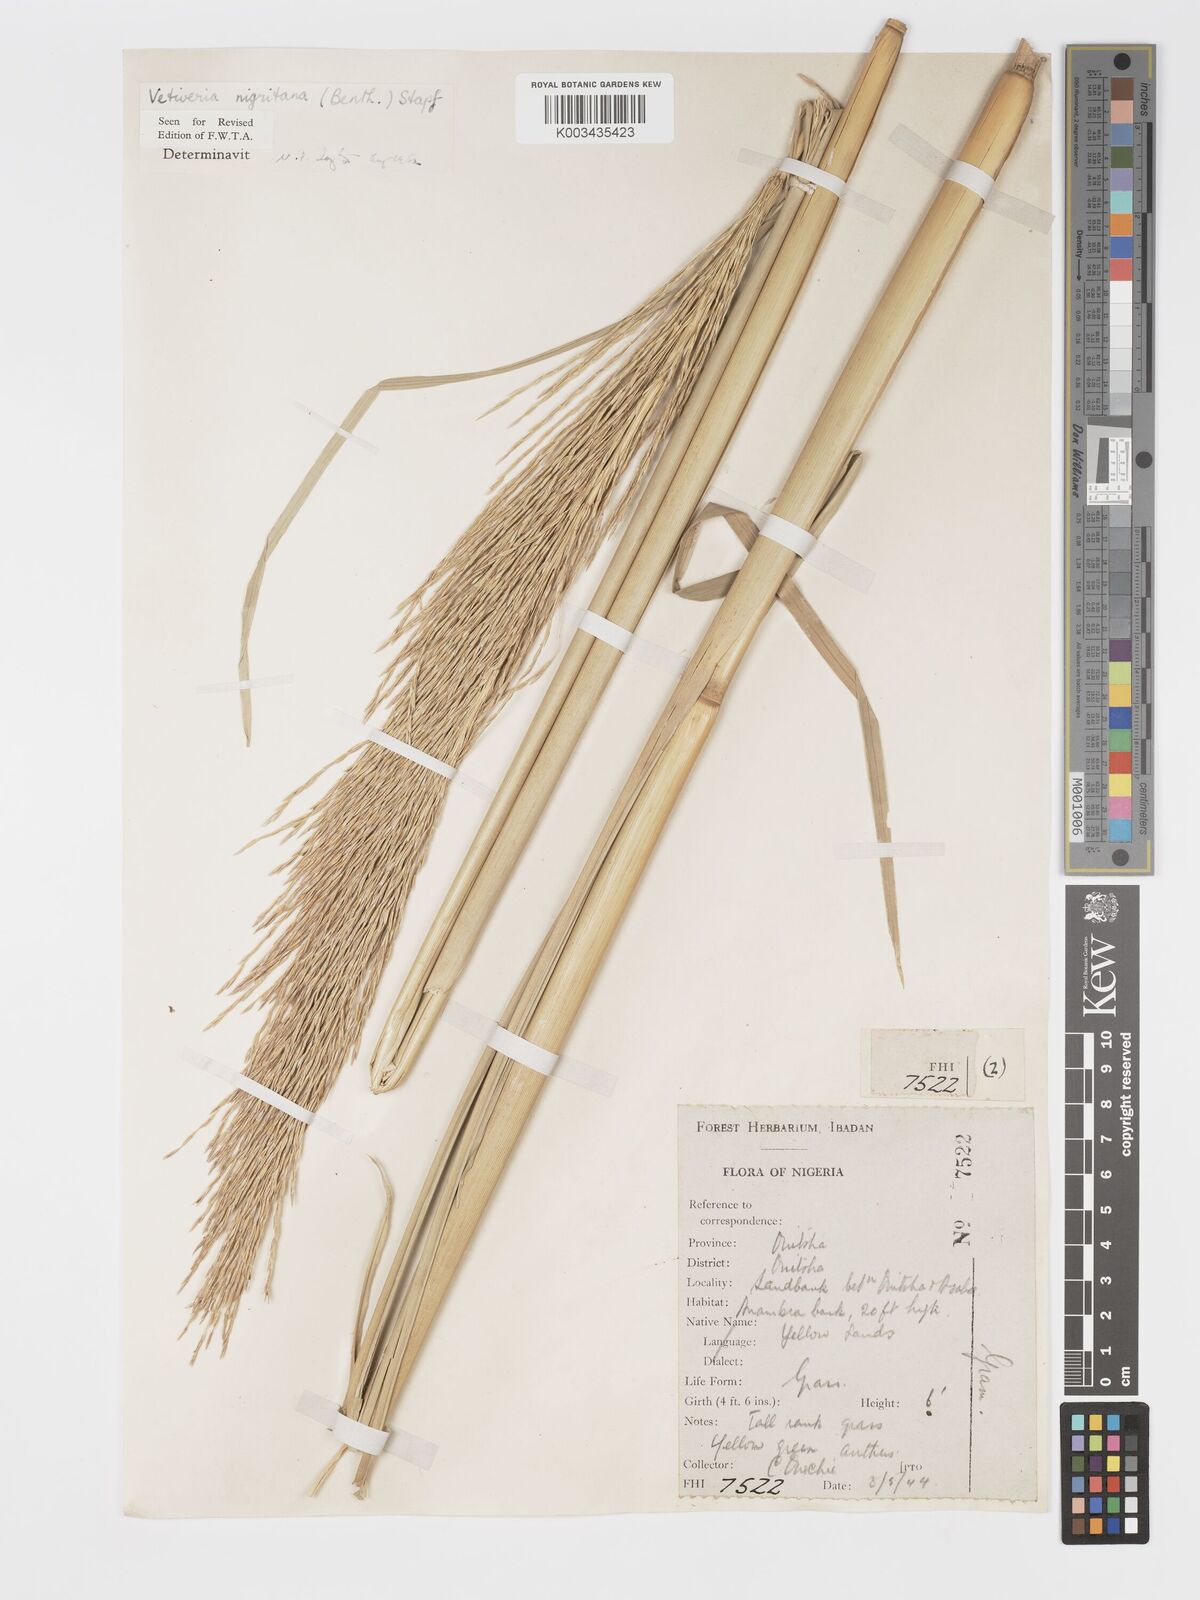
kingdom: Plantae
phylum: Tracheophyta
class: Liliopsida
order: Poales
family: Poaceae
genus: Chrysopogon
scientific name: Chrysopogon nigritanus
